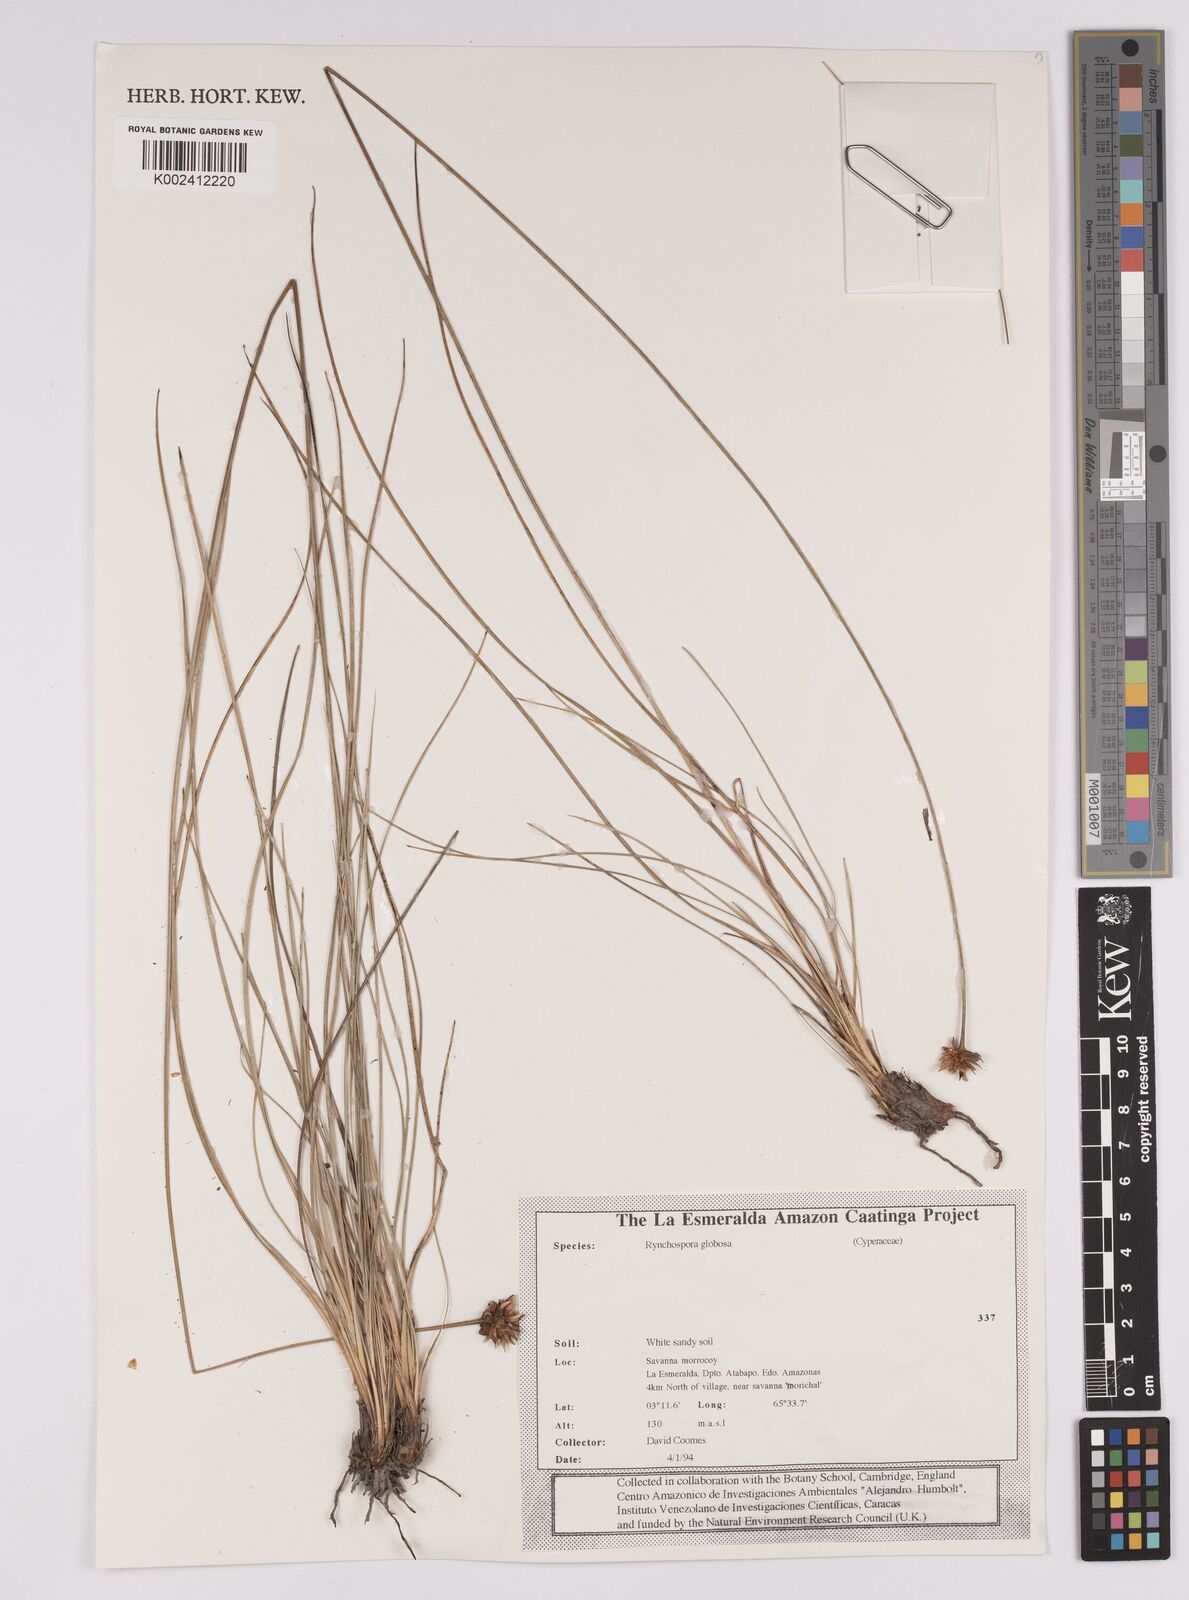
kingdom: Plantae
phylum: Tracheophyta
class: Liliopsida
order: Poales
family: Cyperaceae
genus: Rhynchospora
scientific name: Rhynchospora barbata
